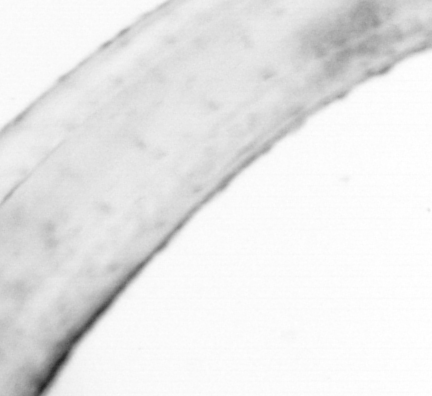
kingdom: Animalia
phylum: Chaetognatha
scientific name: Chaetognatha
